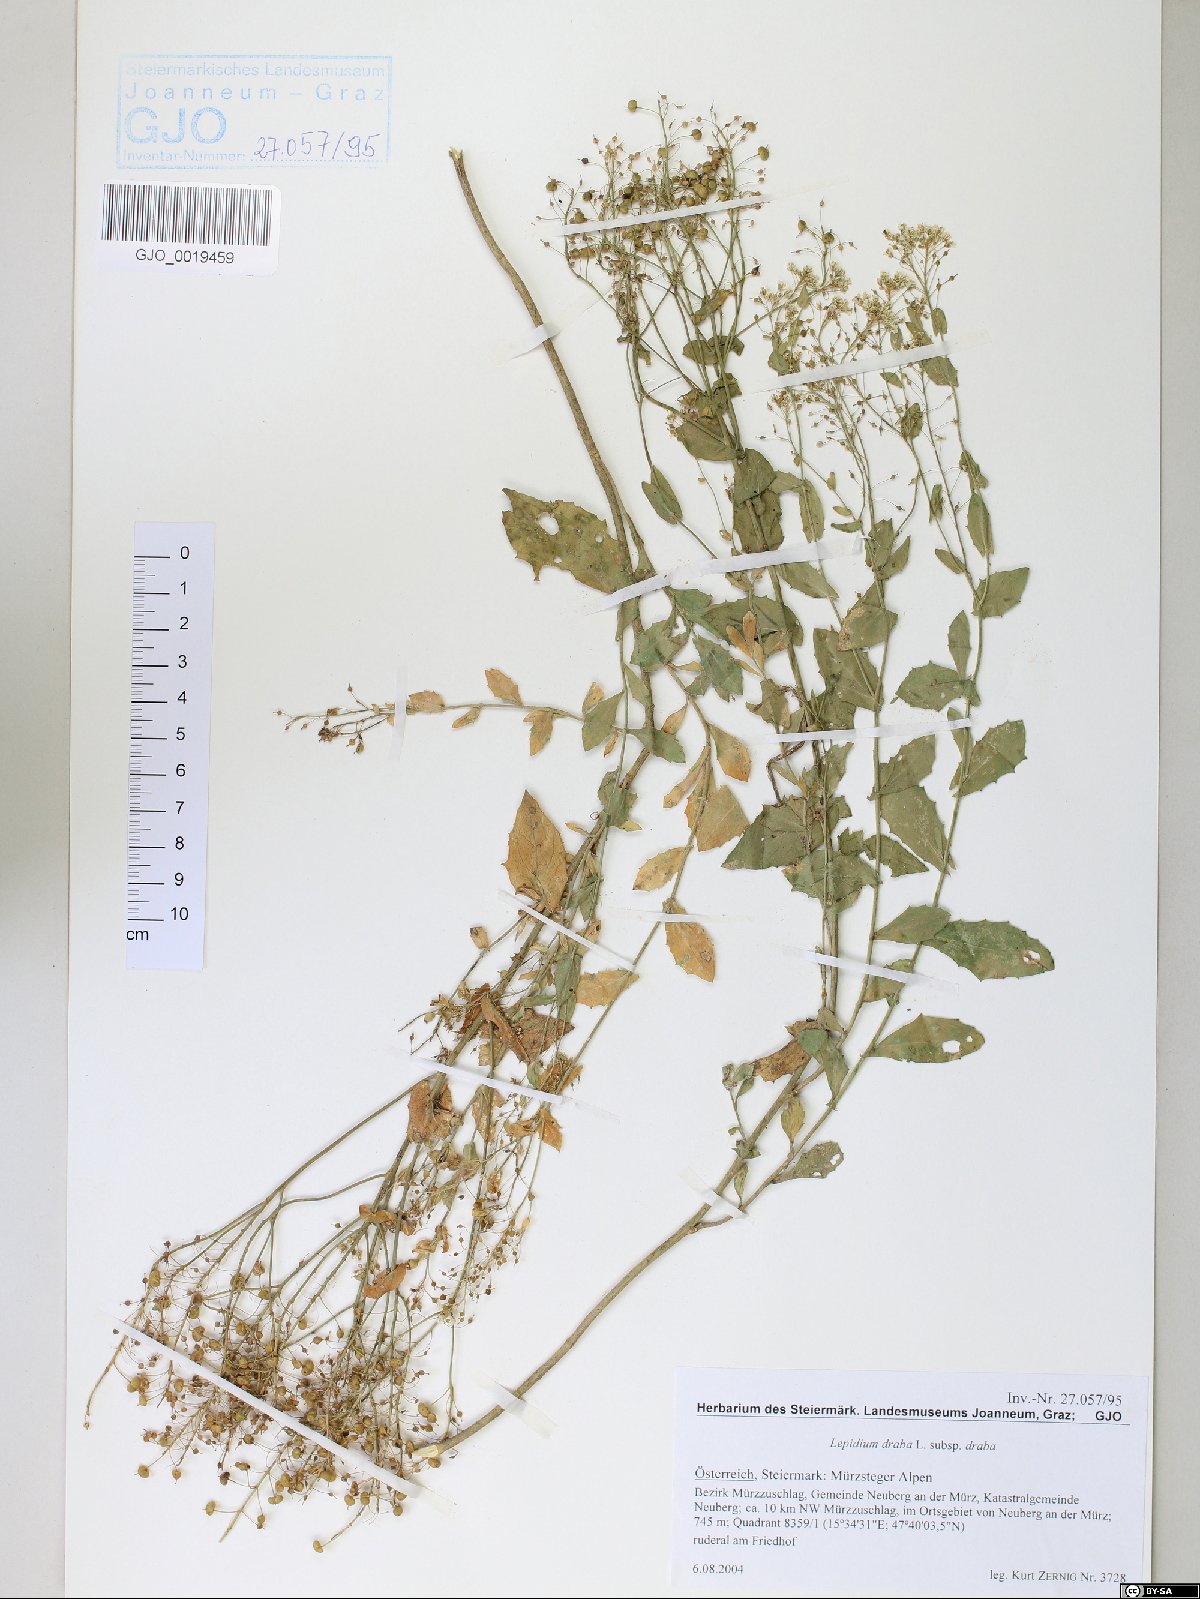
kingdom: Plantae
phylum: Tracheophyta
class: Magnoliopsida
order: Brassicales
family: Brassicaceae
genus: Lepidium
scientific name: Lepidium draba
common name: Hoary cress
